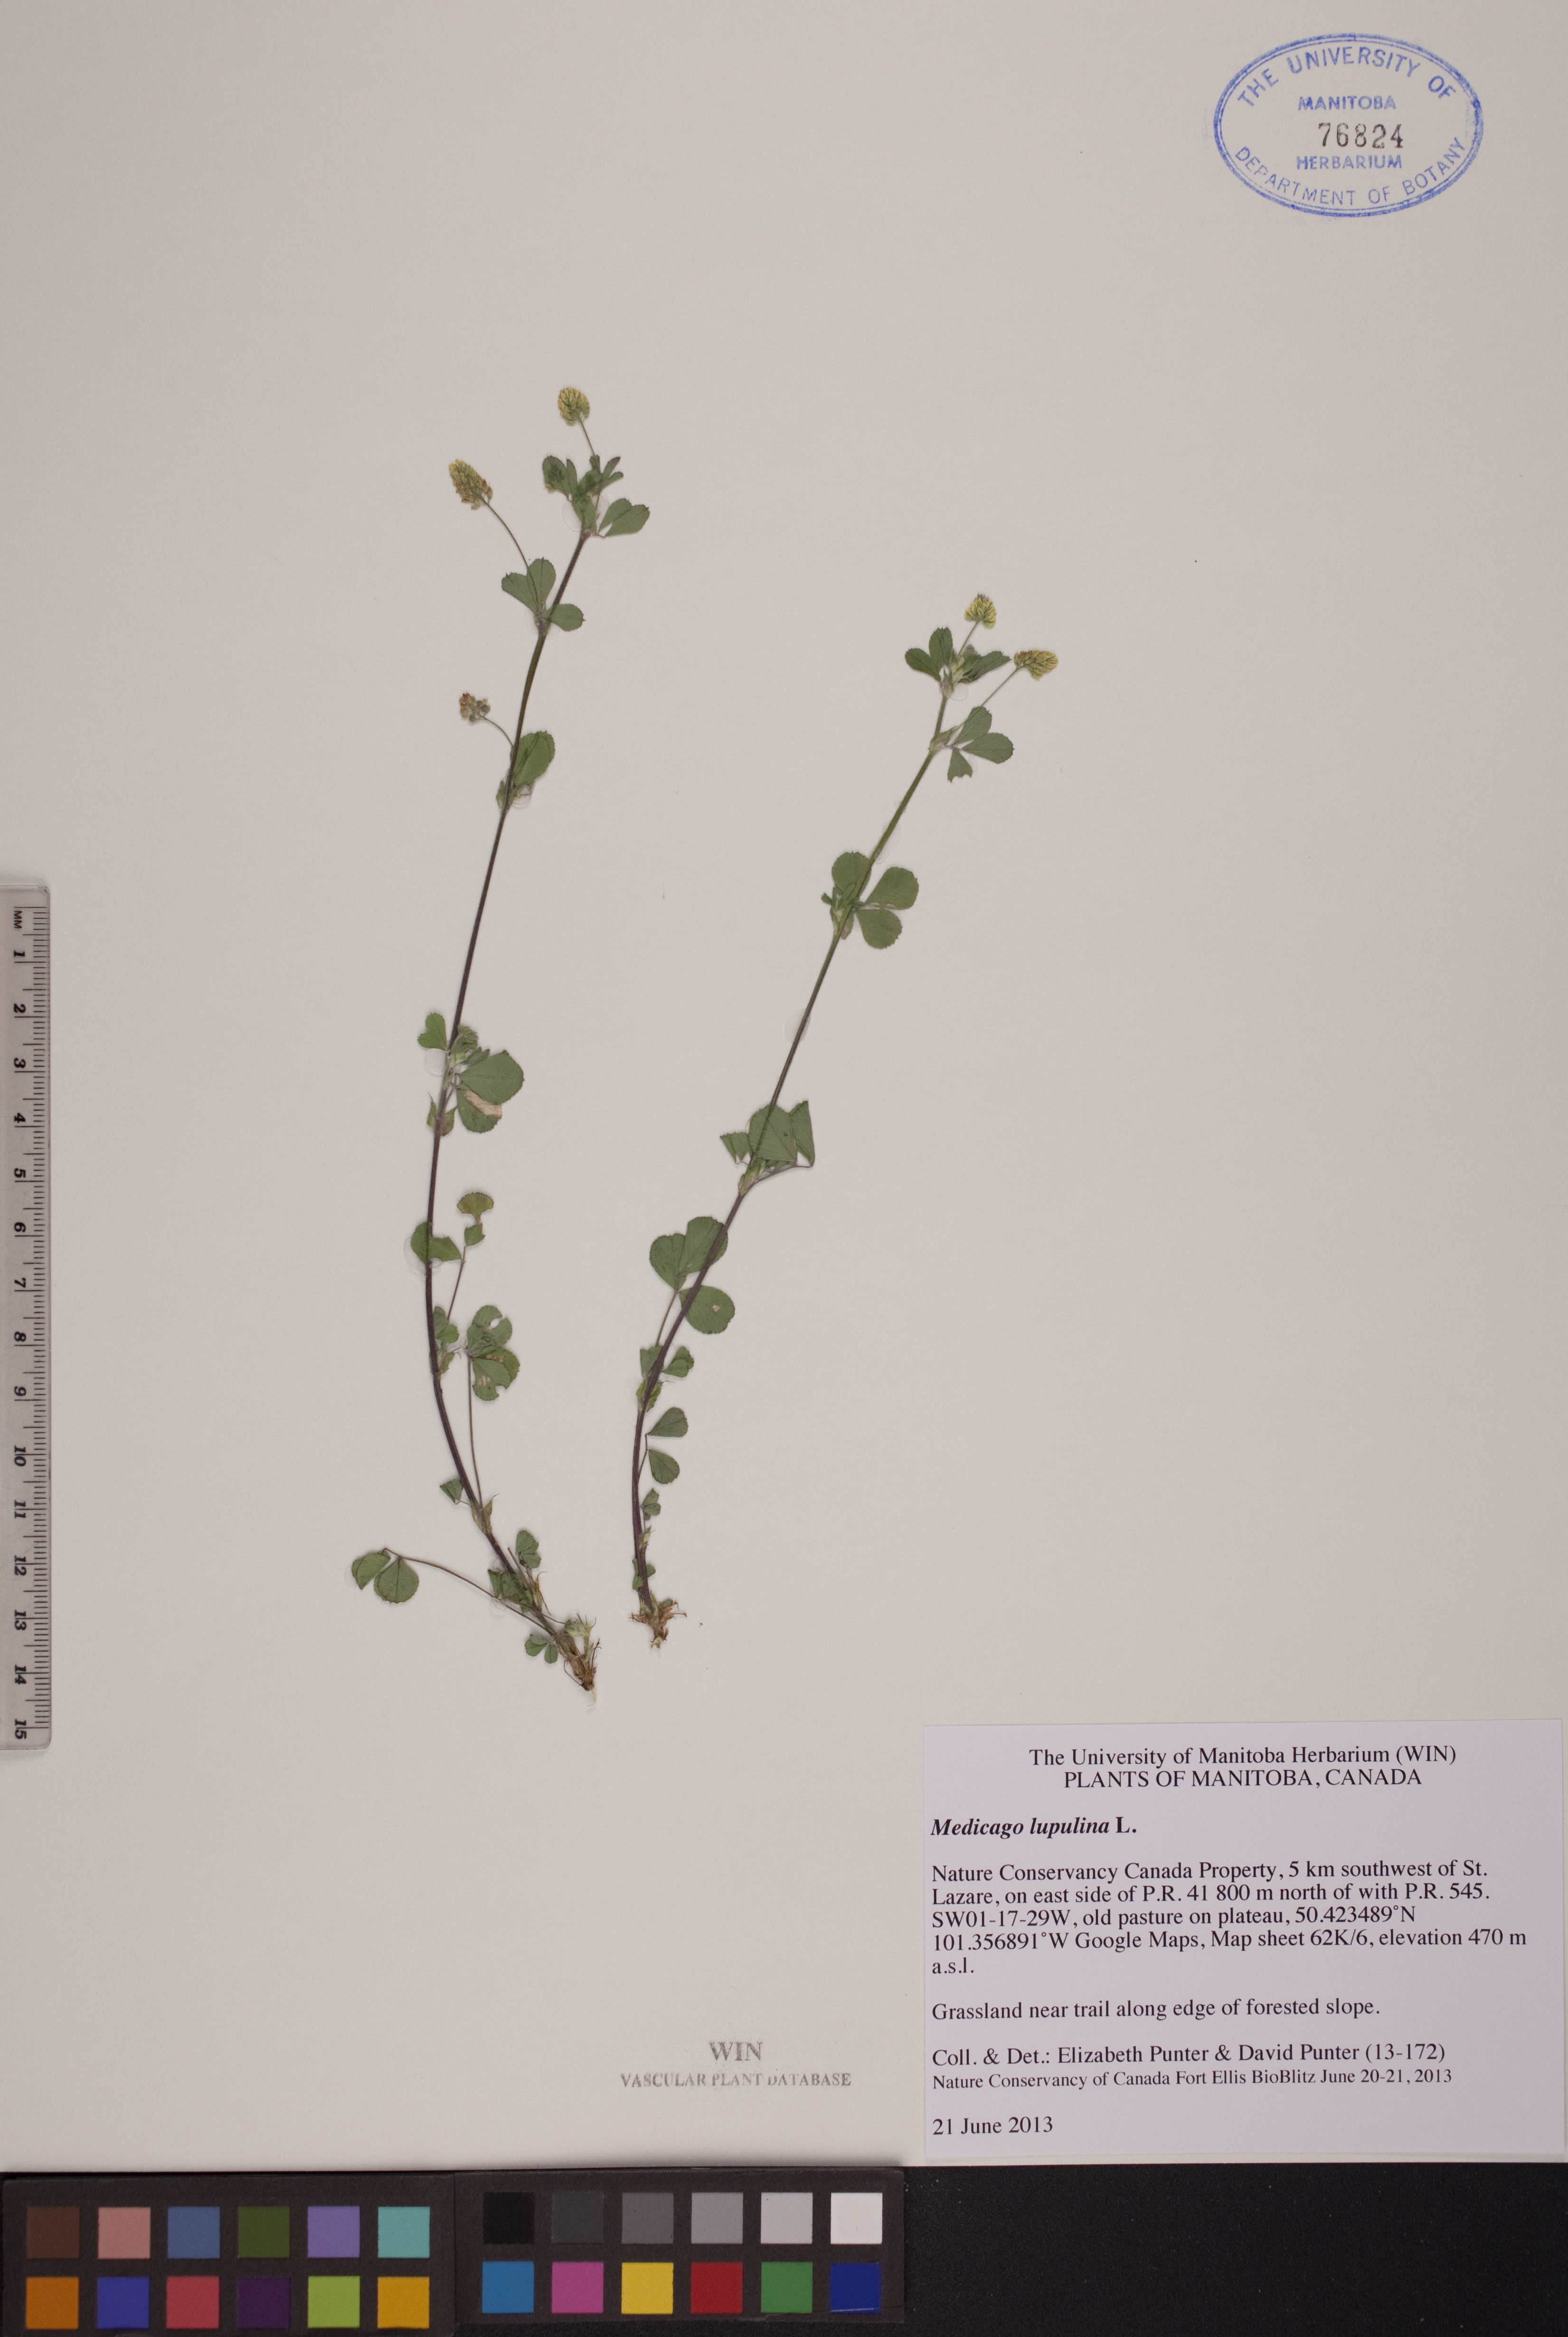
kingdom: Plantae
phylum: Tracheophyta
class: Magnoliopsida
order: Fabales
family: Fabaceae
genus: Medicago
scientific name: Medicago lupulina
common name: Black medick
